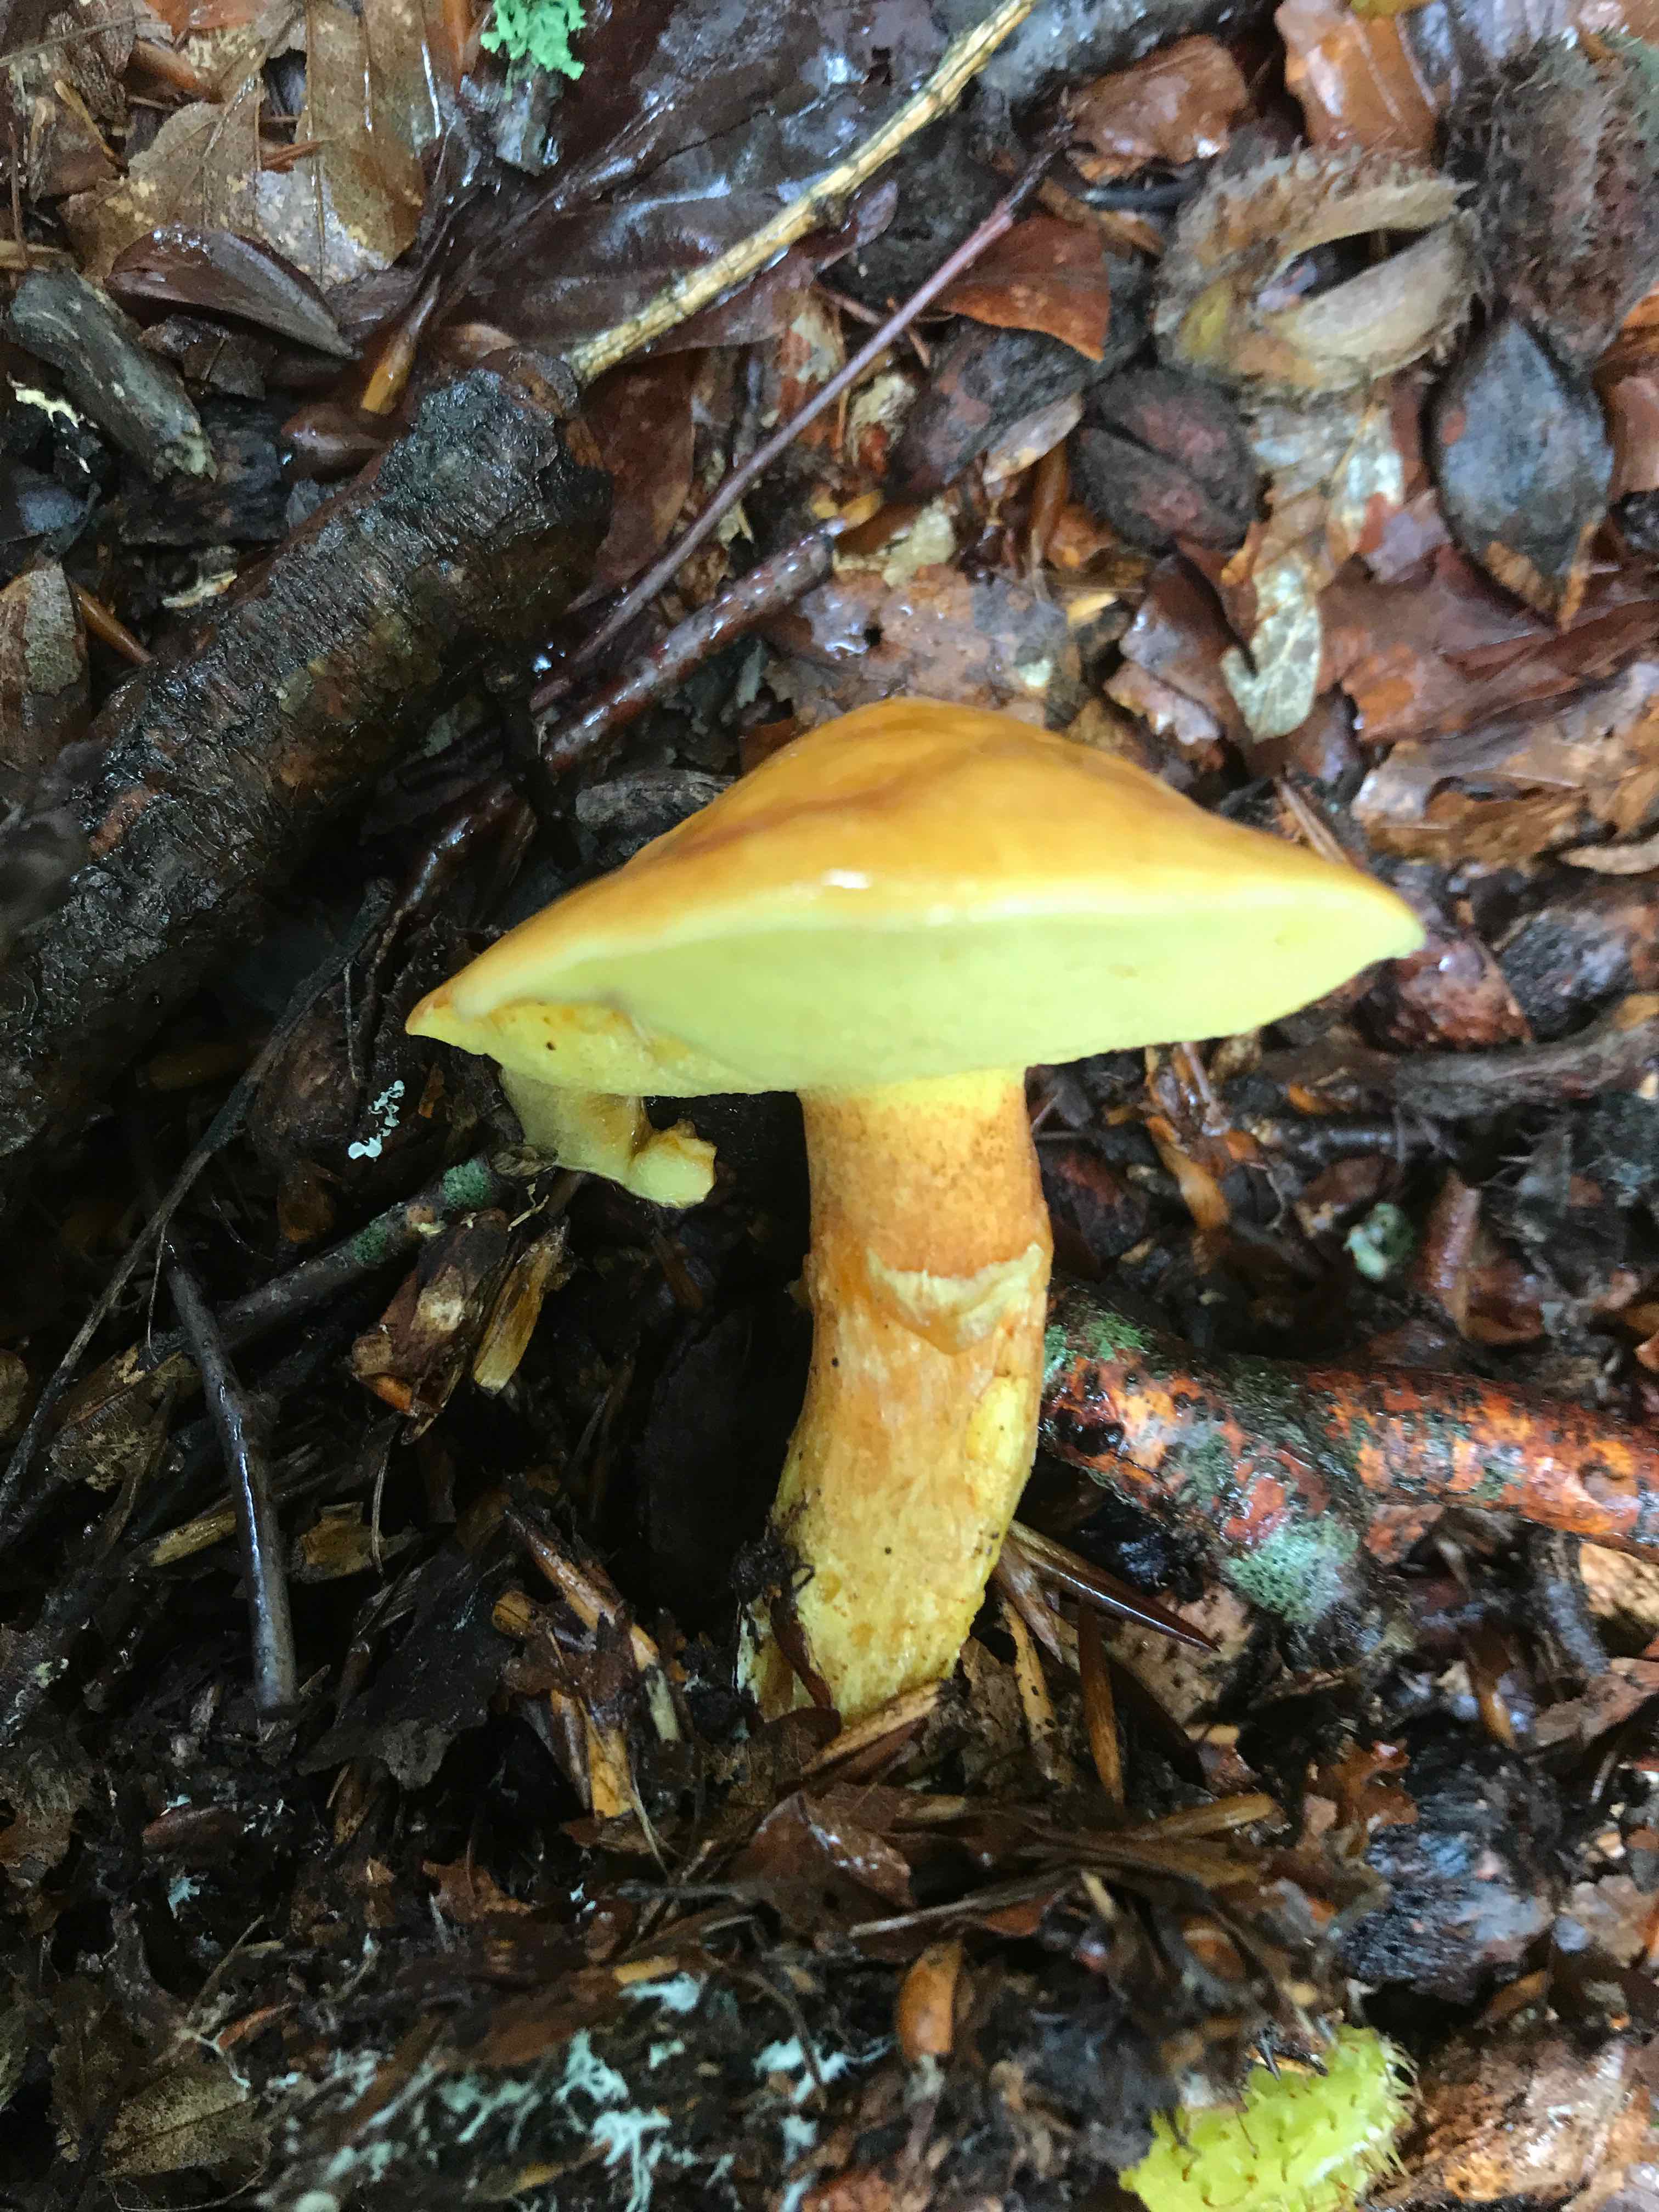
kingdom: Fungi
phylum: Basidiomycota
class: Agaricomycetes
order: Boletales
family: Suillaceae
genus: Suillus
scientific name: Suillus grevillei
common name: lærke-slimrørhat
